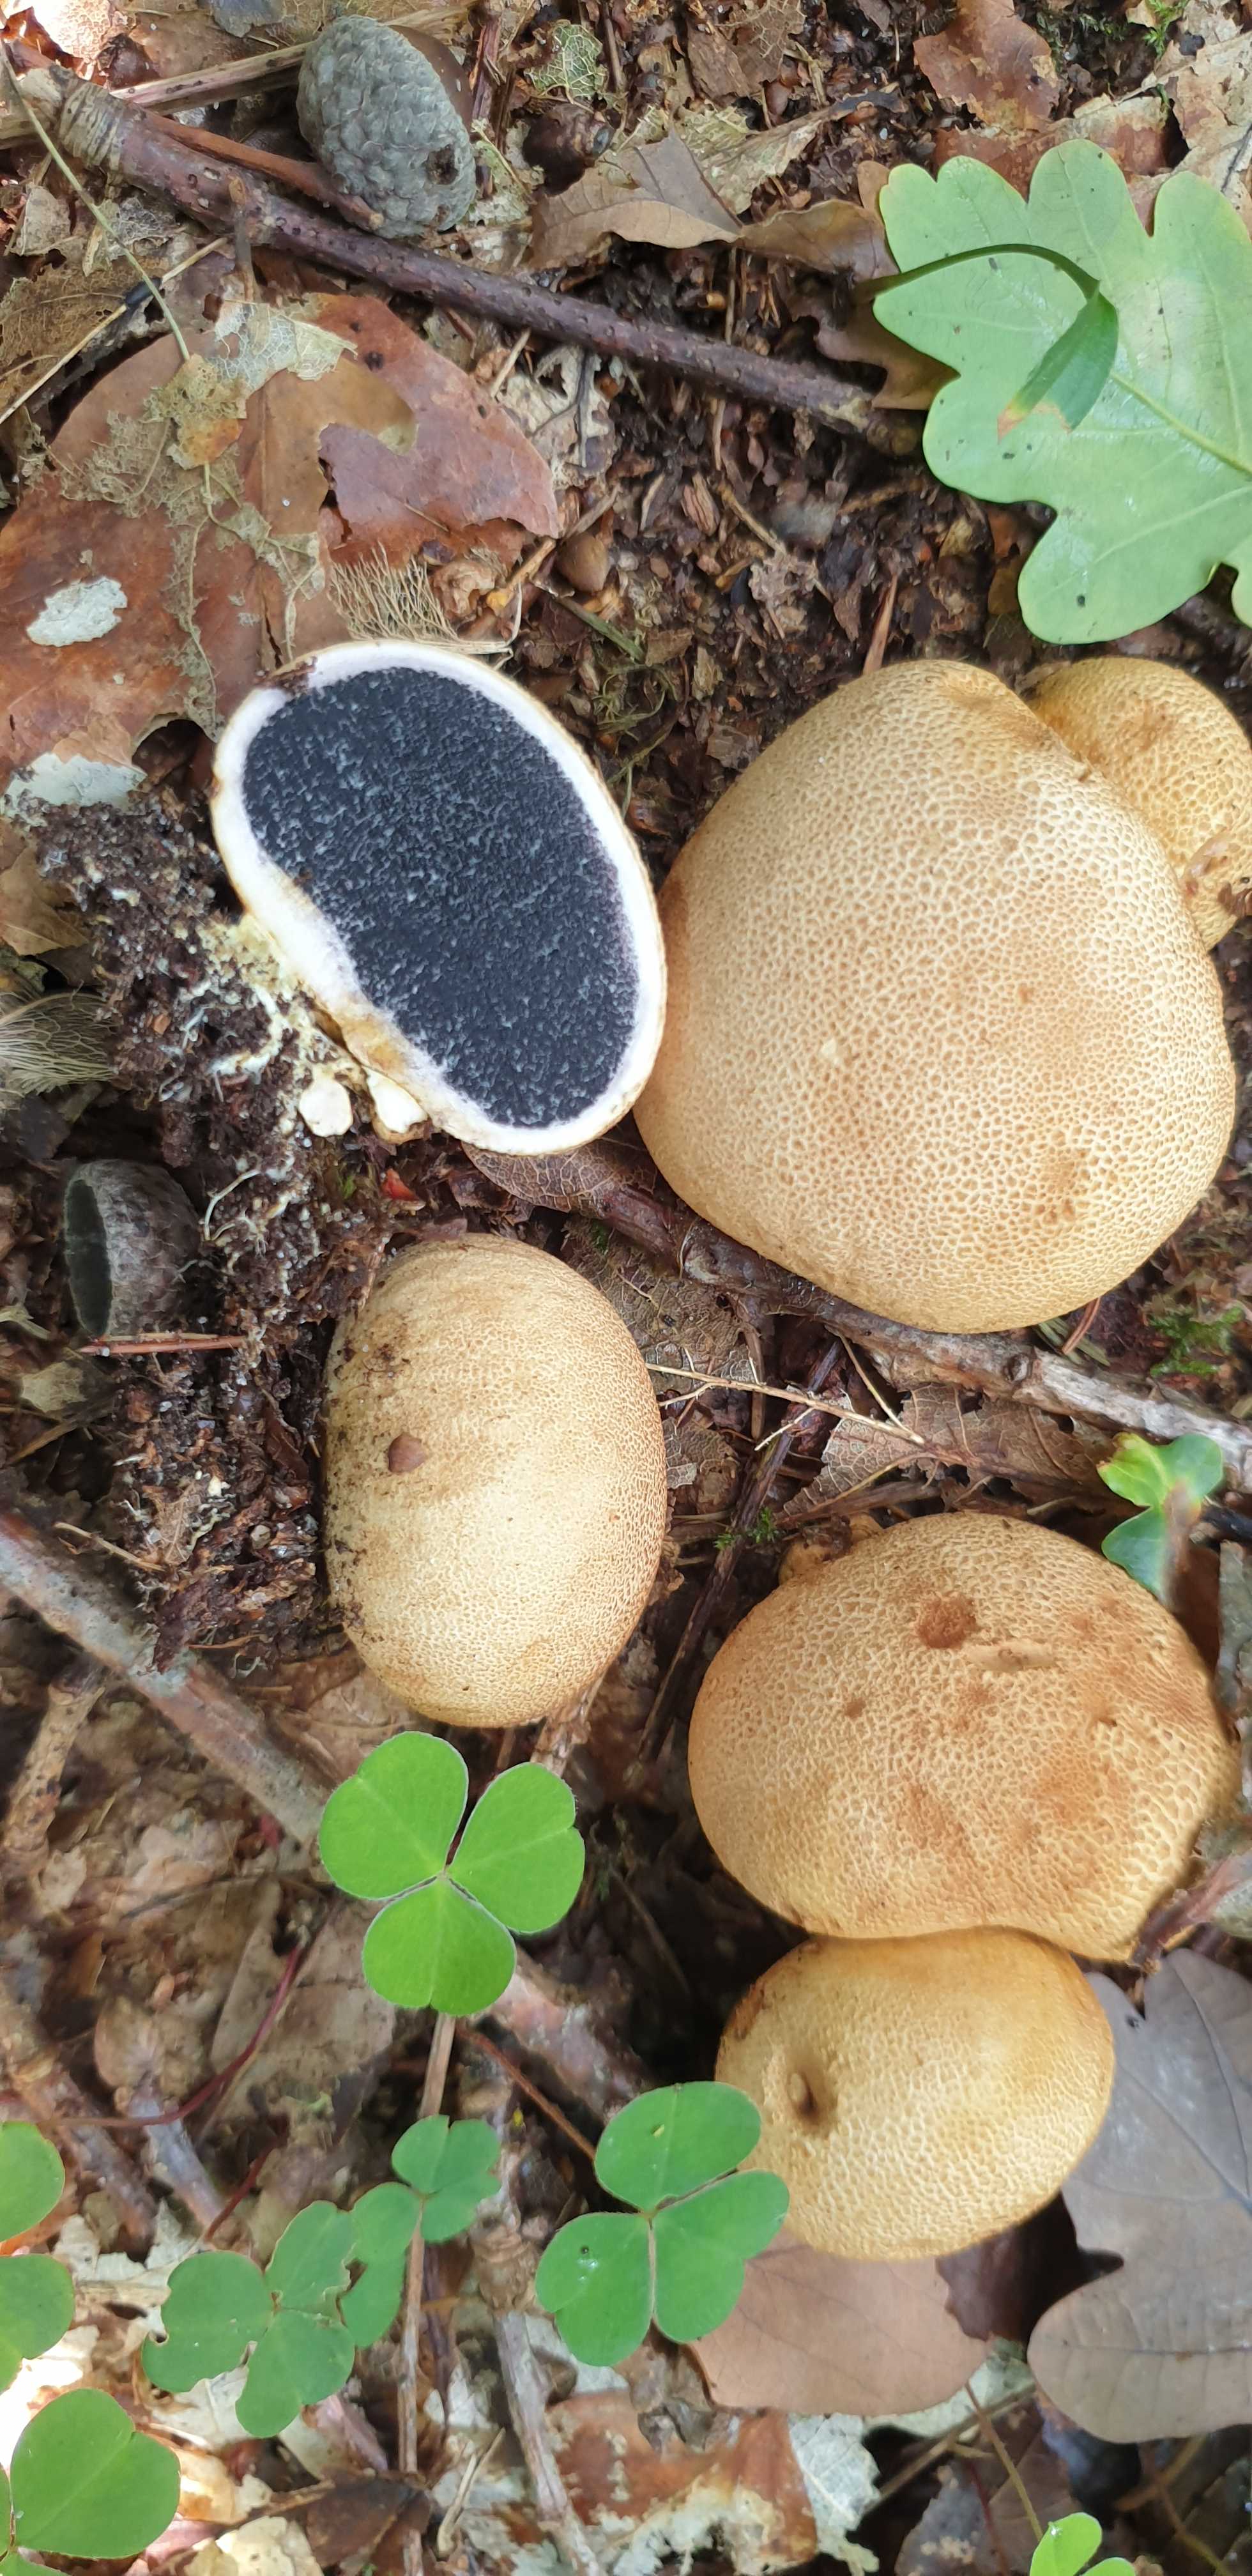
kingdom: Fungi
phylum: Basidiomycota
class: Agaricomycetes
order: Boletales
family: Sclerodermataceae
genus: Scleroderma
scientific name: Scleroderma citrinum
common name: almindelig bruskbold
